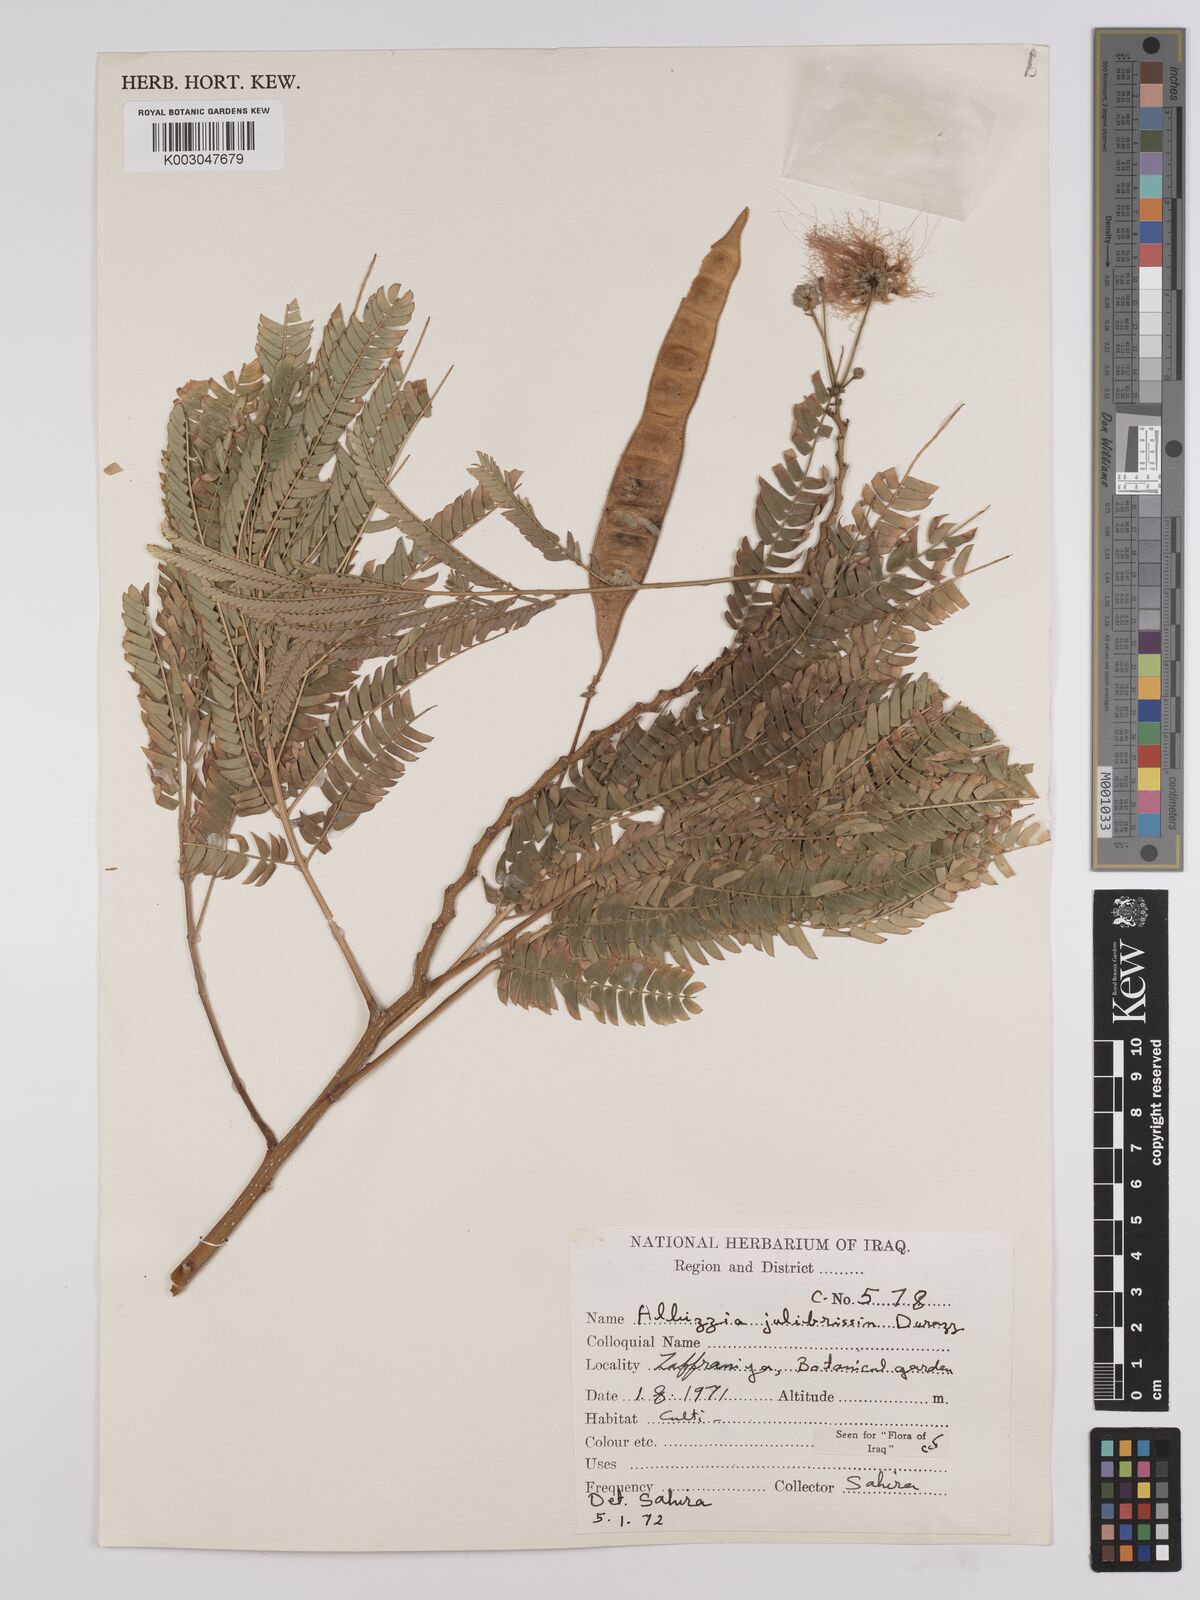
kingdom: Plantae
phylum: Tracheophyta
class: Magnoliopsida
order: Fabales
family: Fabaceae
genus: Albizia
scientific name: Albizia julibrissin
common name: Silktree
